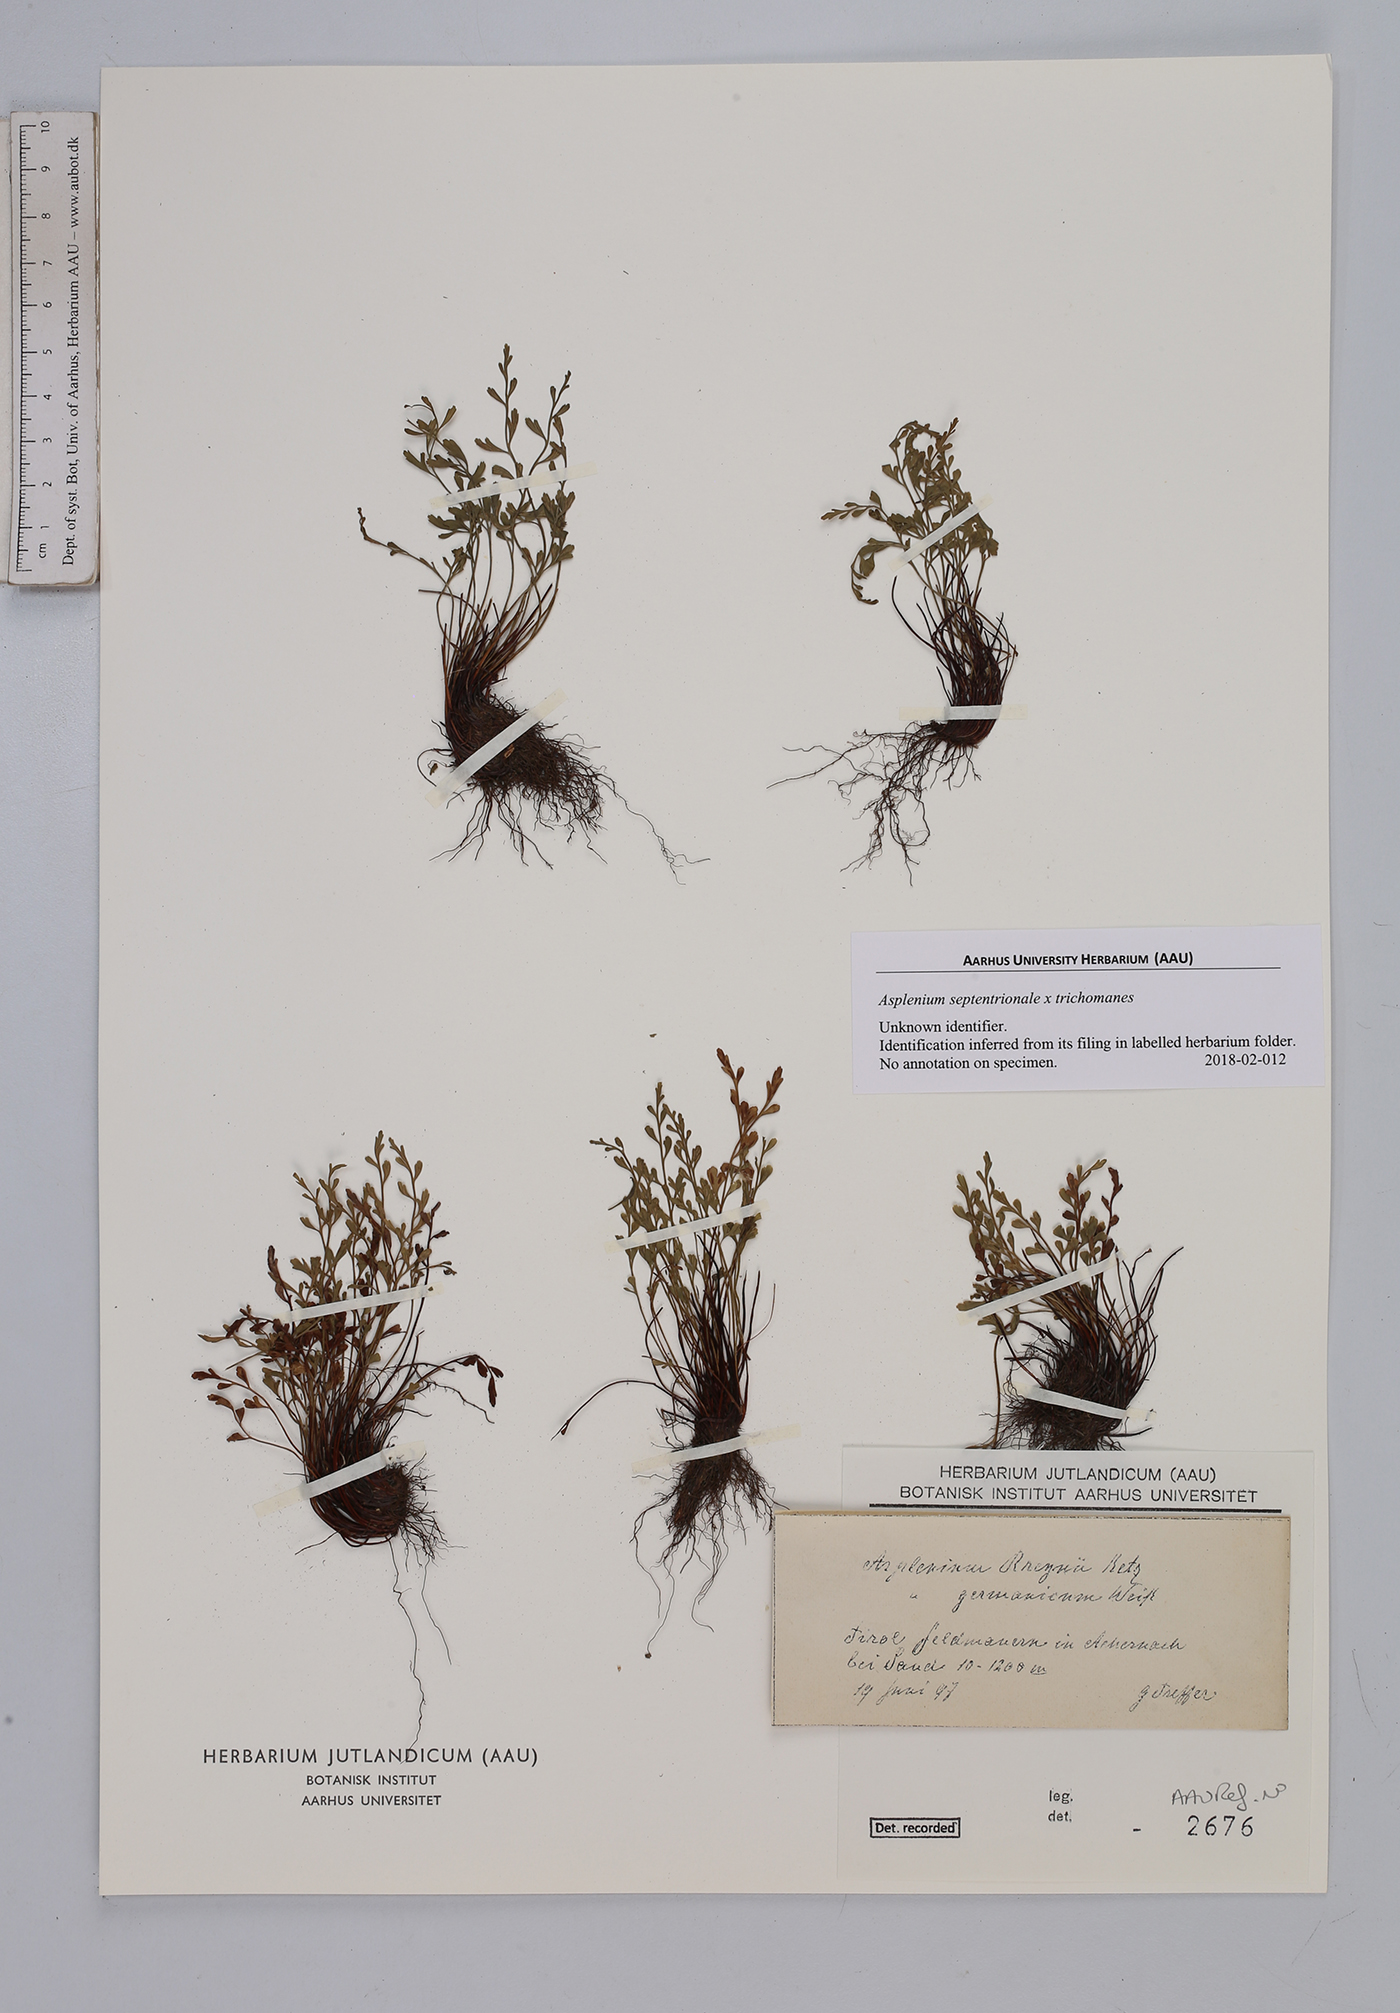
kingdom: Plantae
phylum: Tracheophyta
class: Polypodiopsida
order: Polypodiales
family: Aspleniaceae
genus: Asplenium
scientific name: Asplenium
